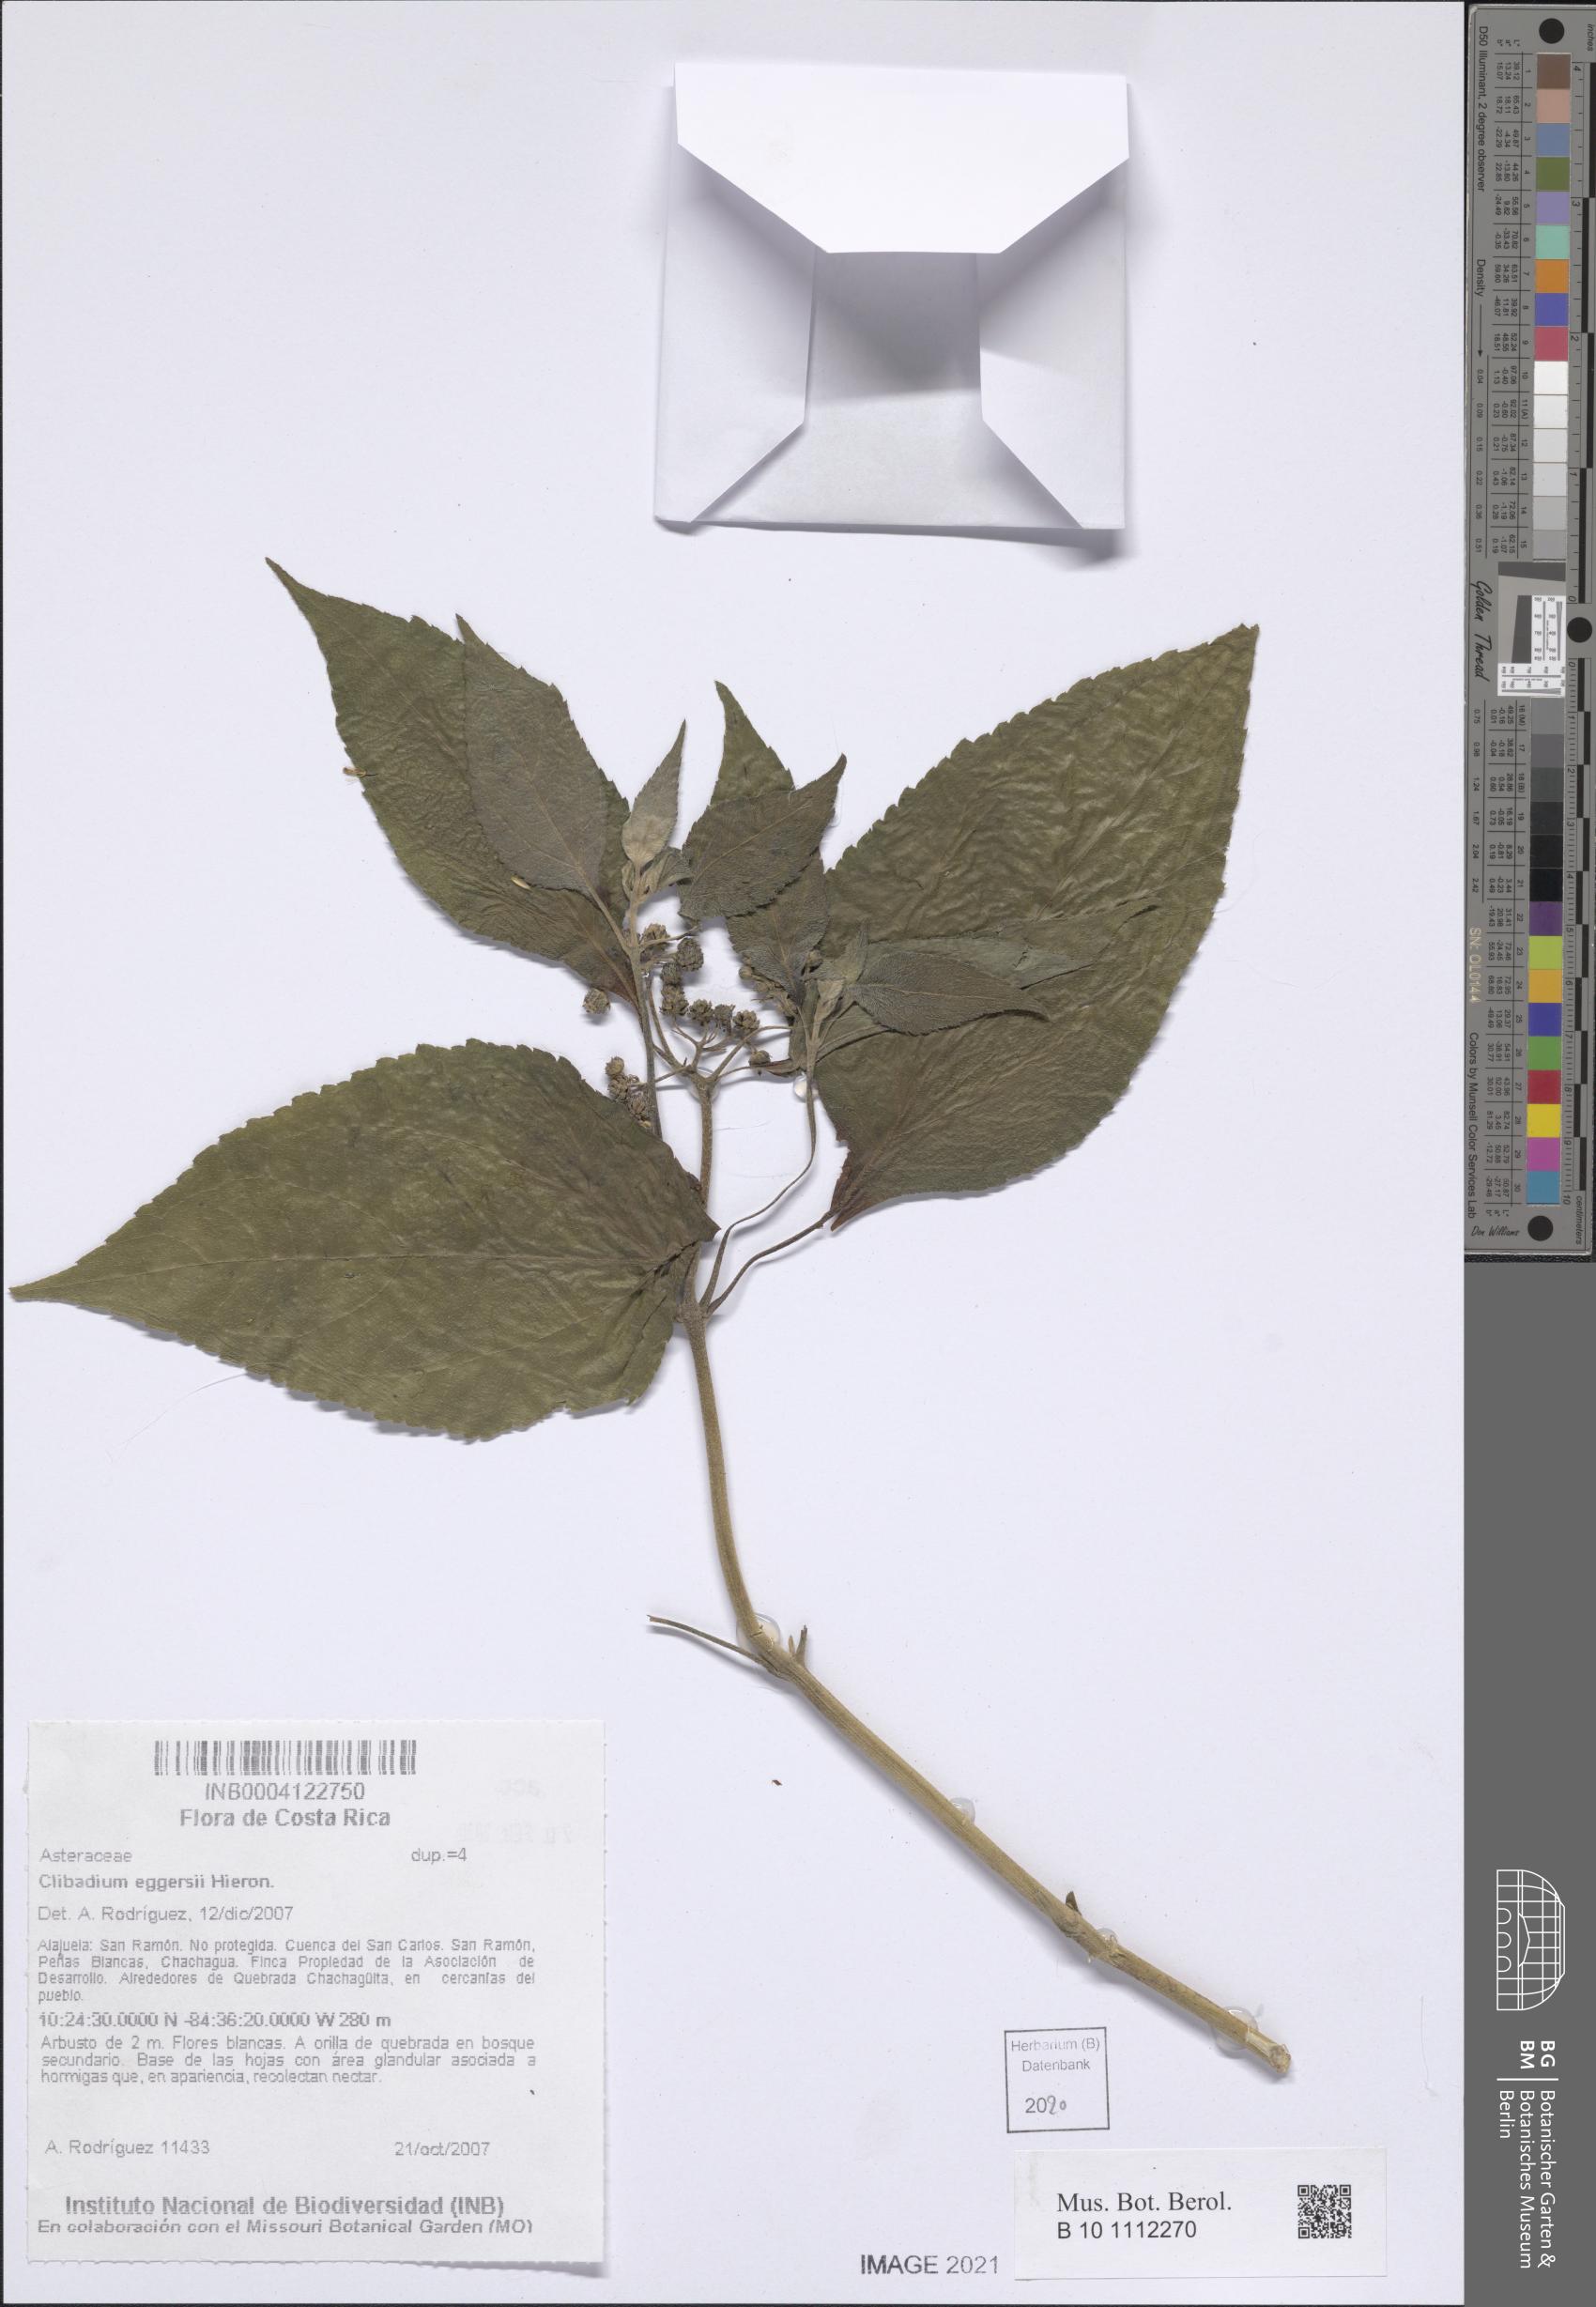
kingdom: Plantae
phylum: Tracheophyta
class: Magnoliopsida
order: Asterales
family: Asteraceae
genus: Clibadium
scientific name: Clibadium eggersii
